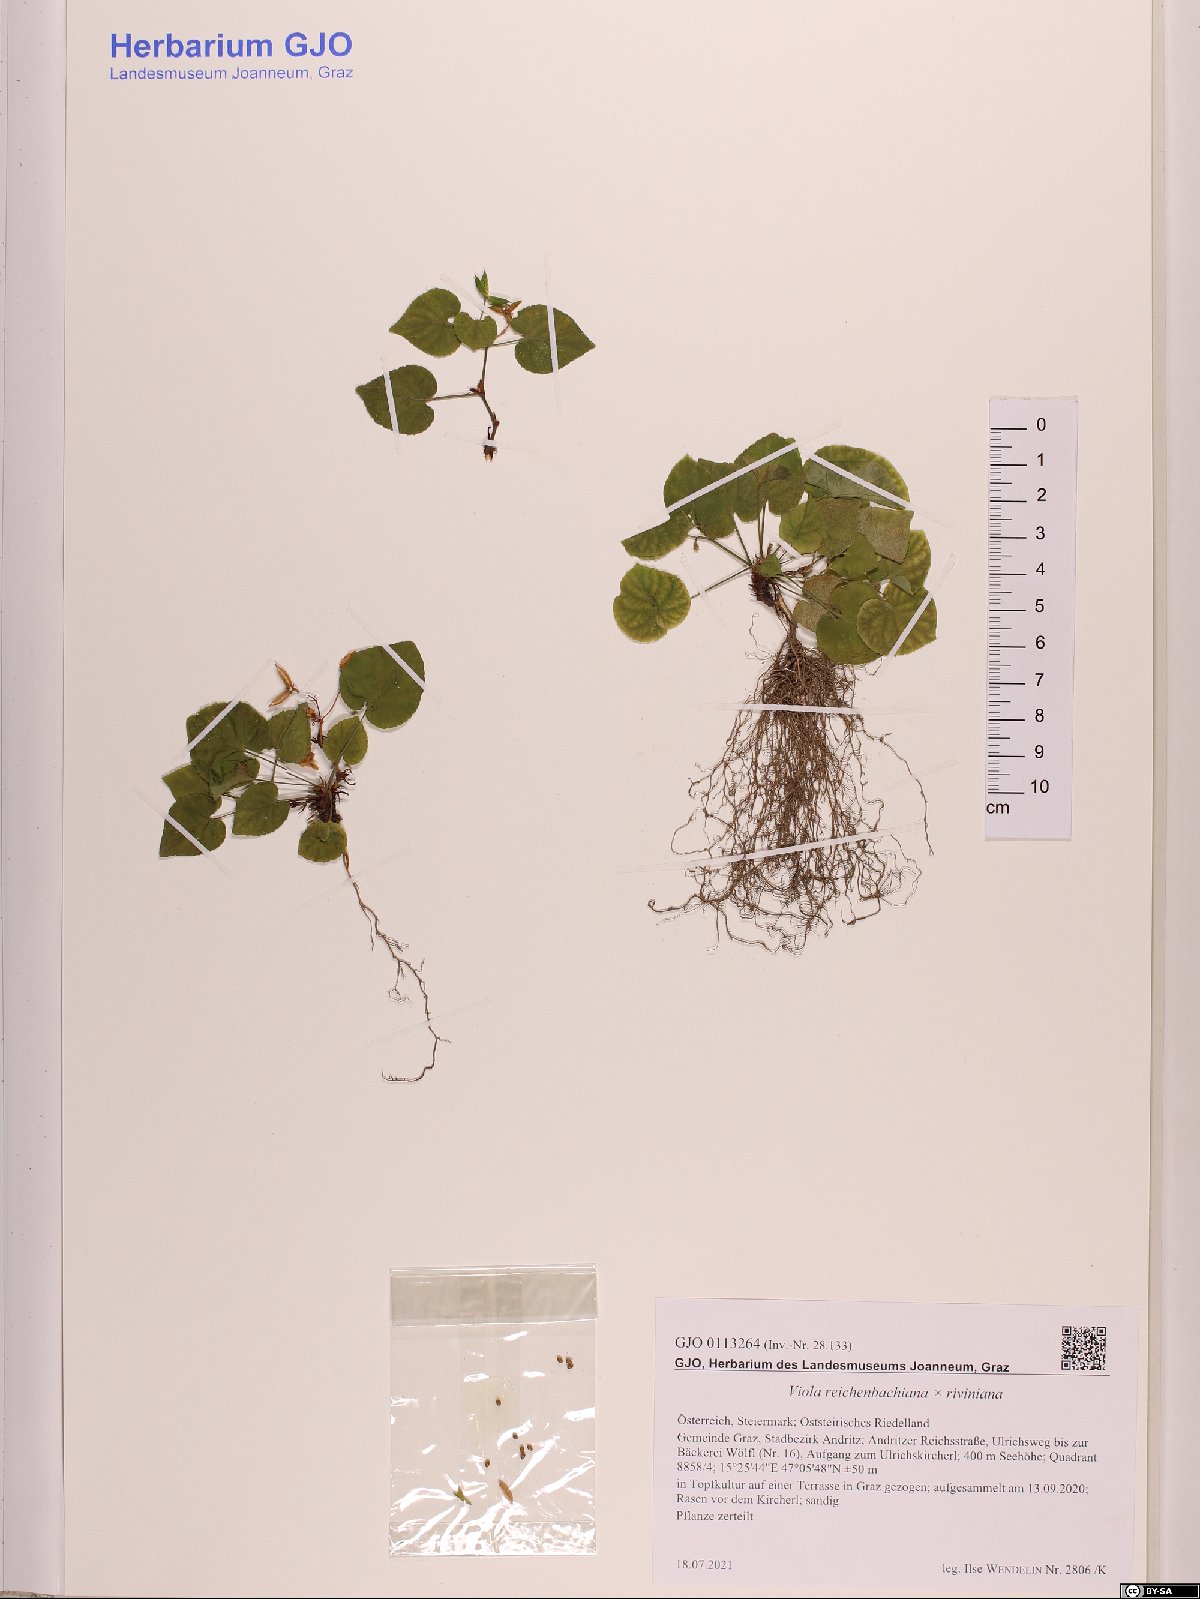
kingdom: Plantae
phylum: Tracheophyta
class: Magnoliopsida
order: Malpighiales
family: Violaceae
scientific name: Violaceae
